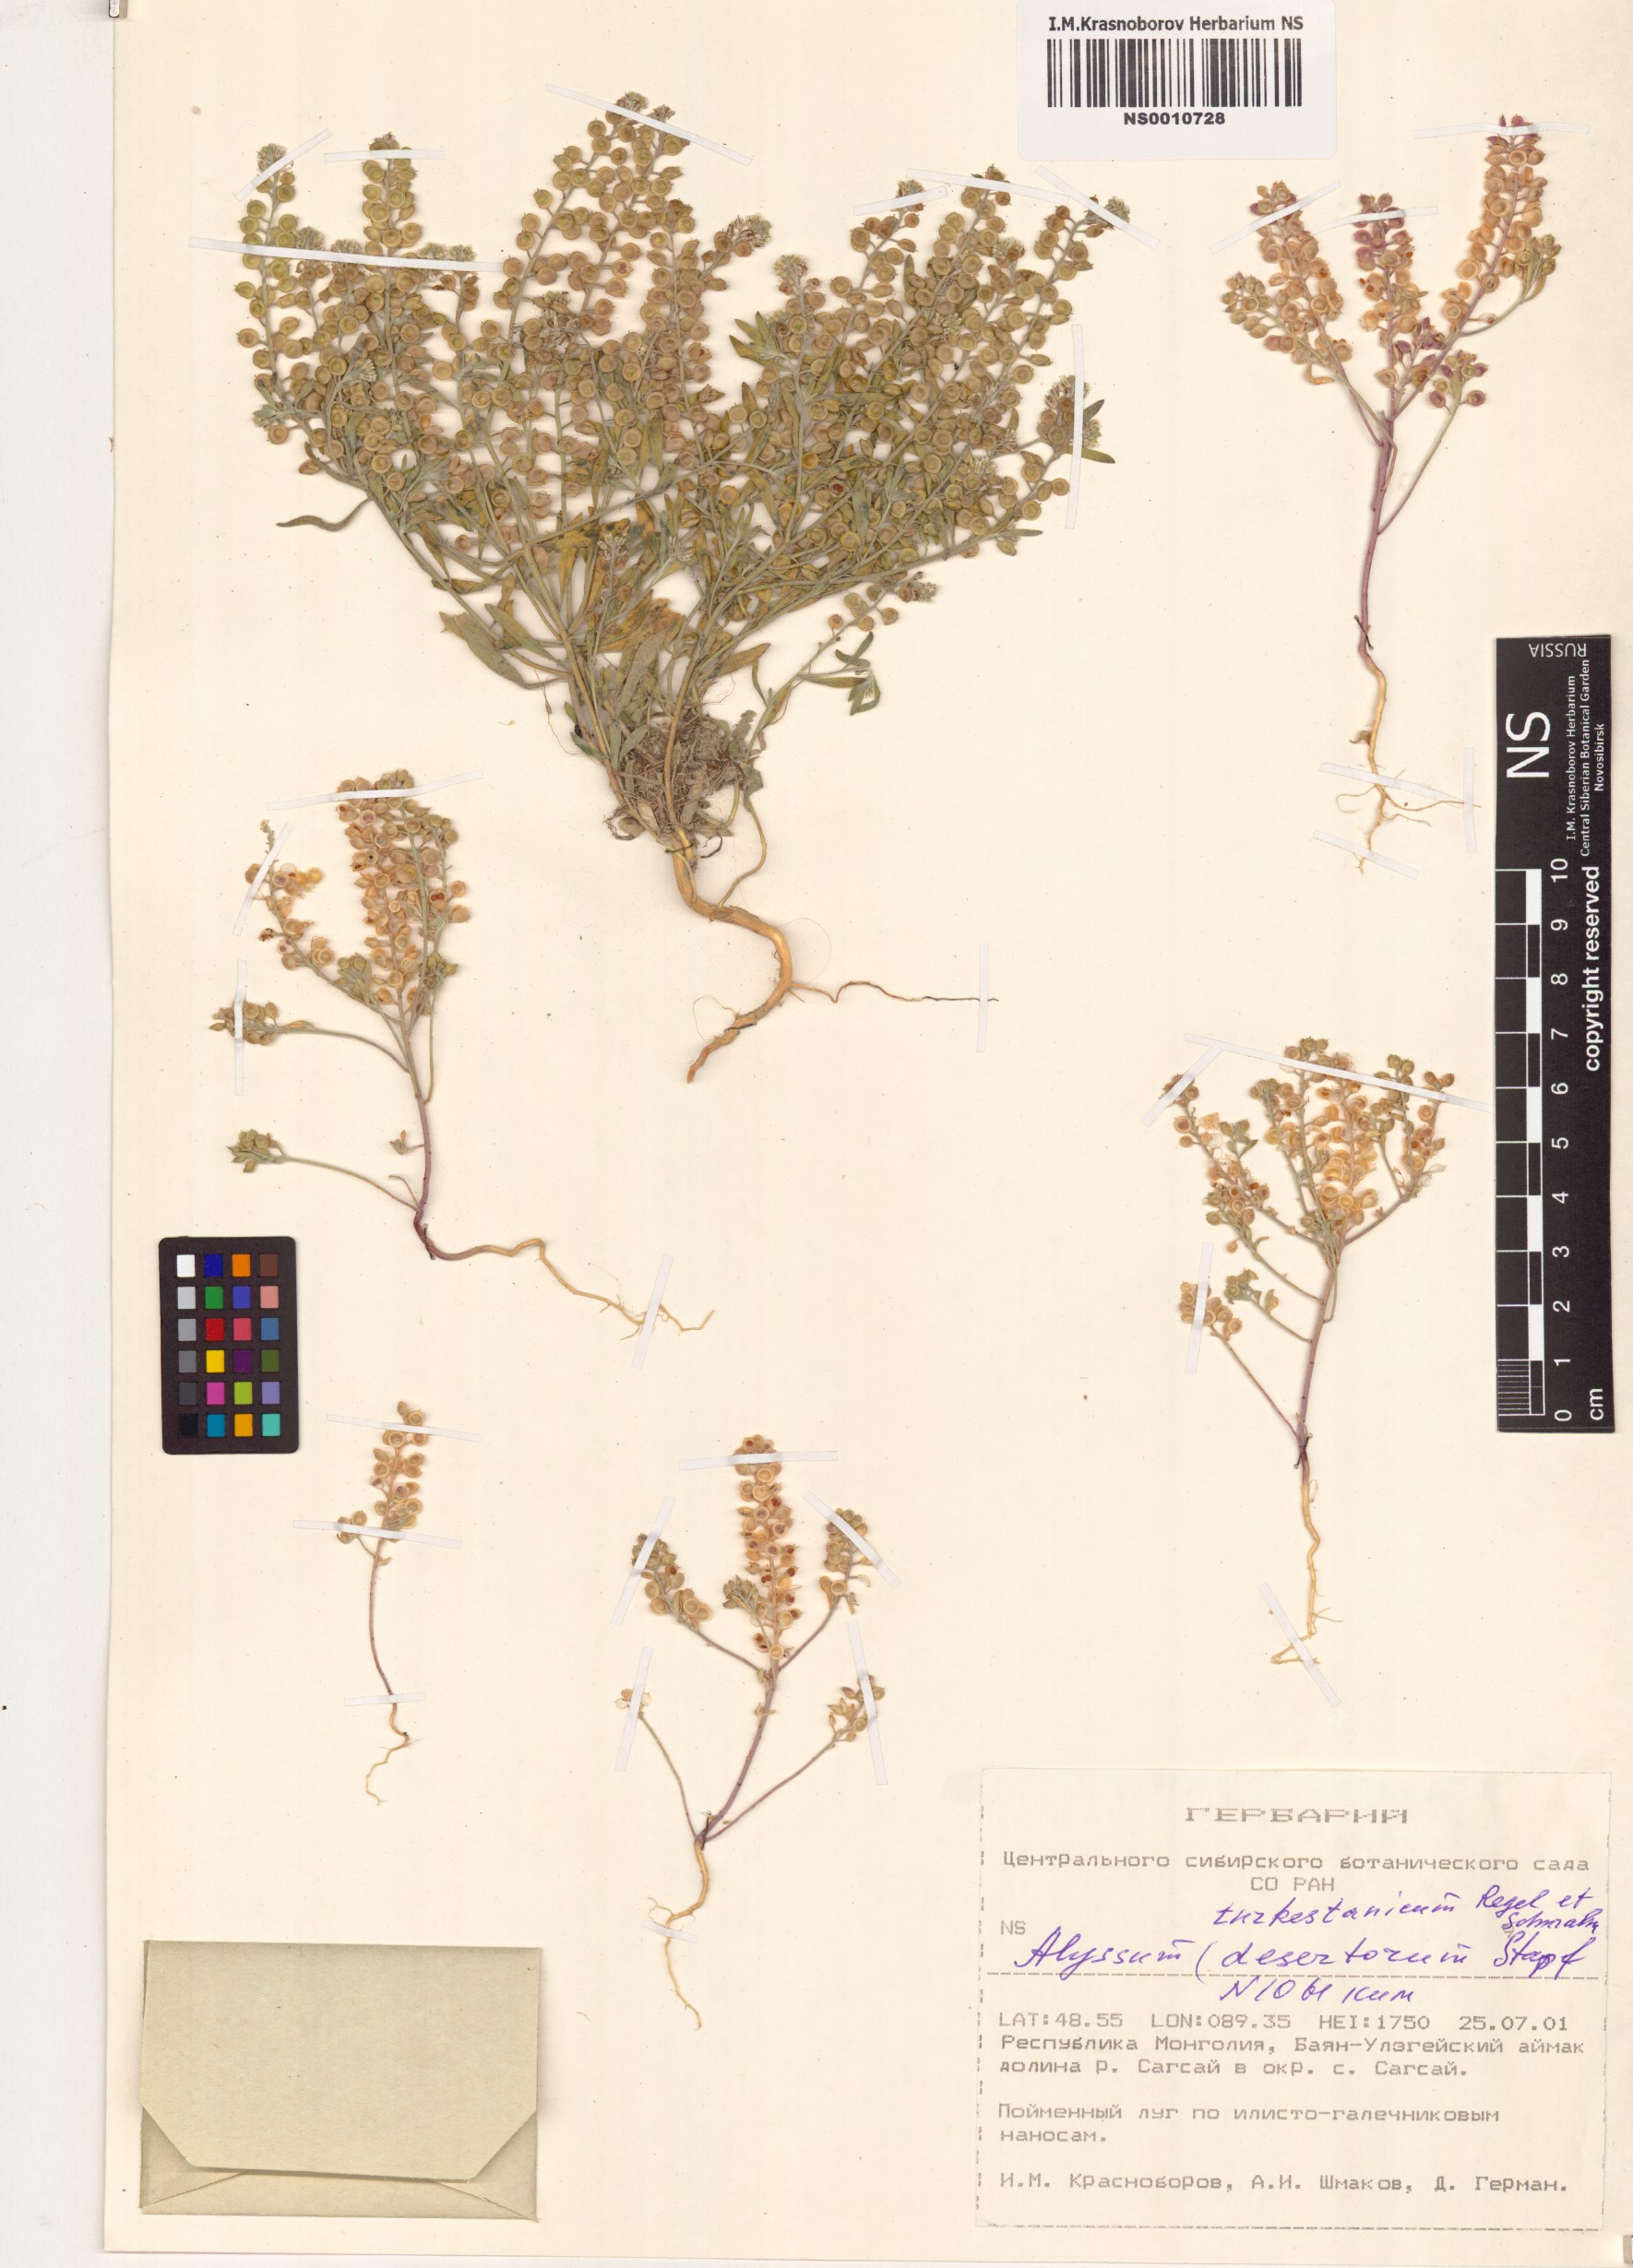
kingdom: Plantae
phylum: Tracheophyta
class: Magnoliopsida
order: Brassicales
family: Brassicaceae
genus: Alyssum
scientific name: Alyssum turkestanicum
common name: Desert alyssum
